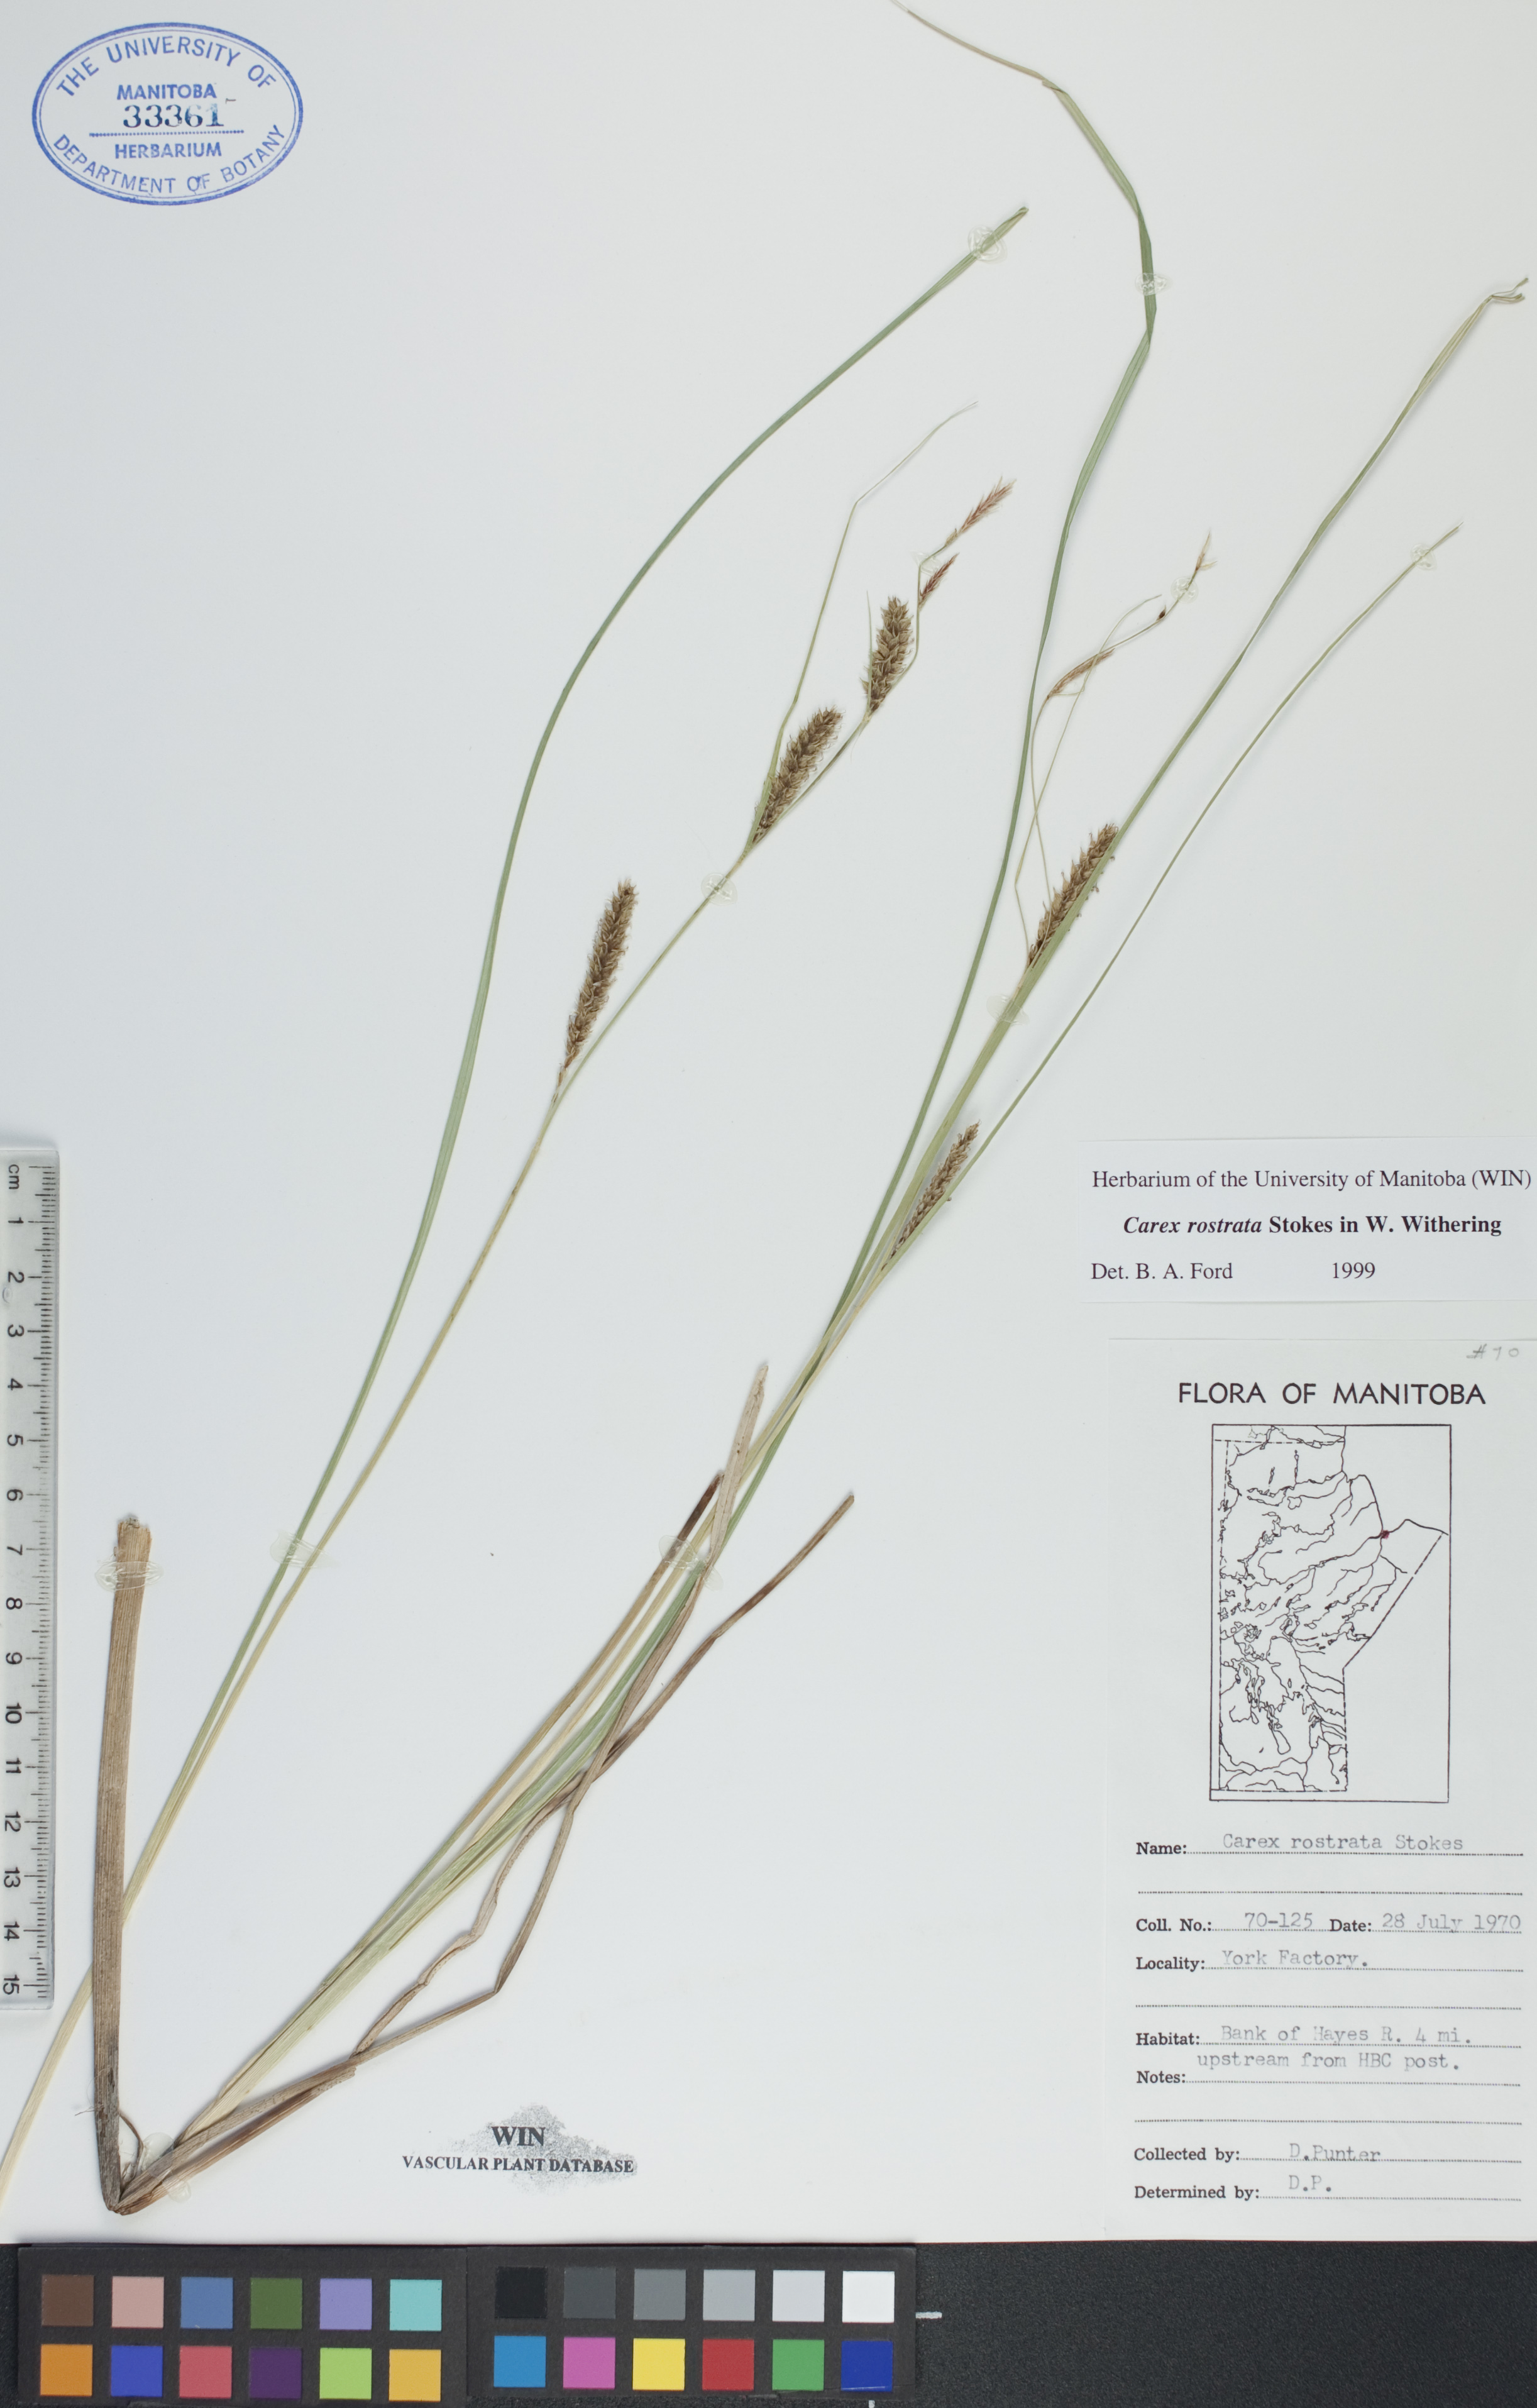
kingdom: Plantae
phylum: Tracheophyta
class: Liliopsida
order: Poales
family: Cyperaceae
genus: Carex
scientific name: Carex rostrata
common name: Bottle sedge
